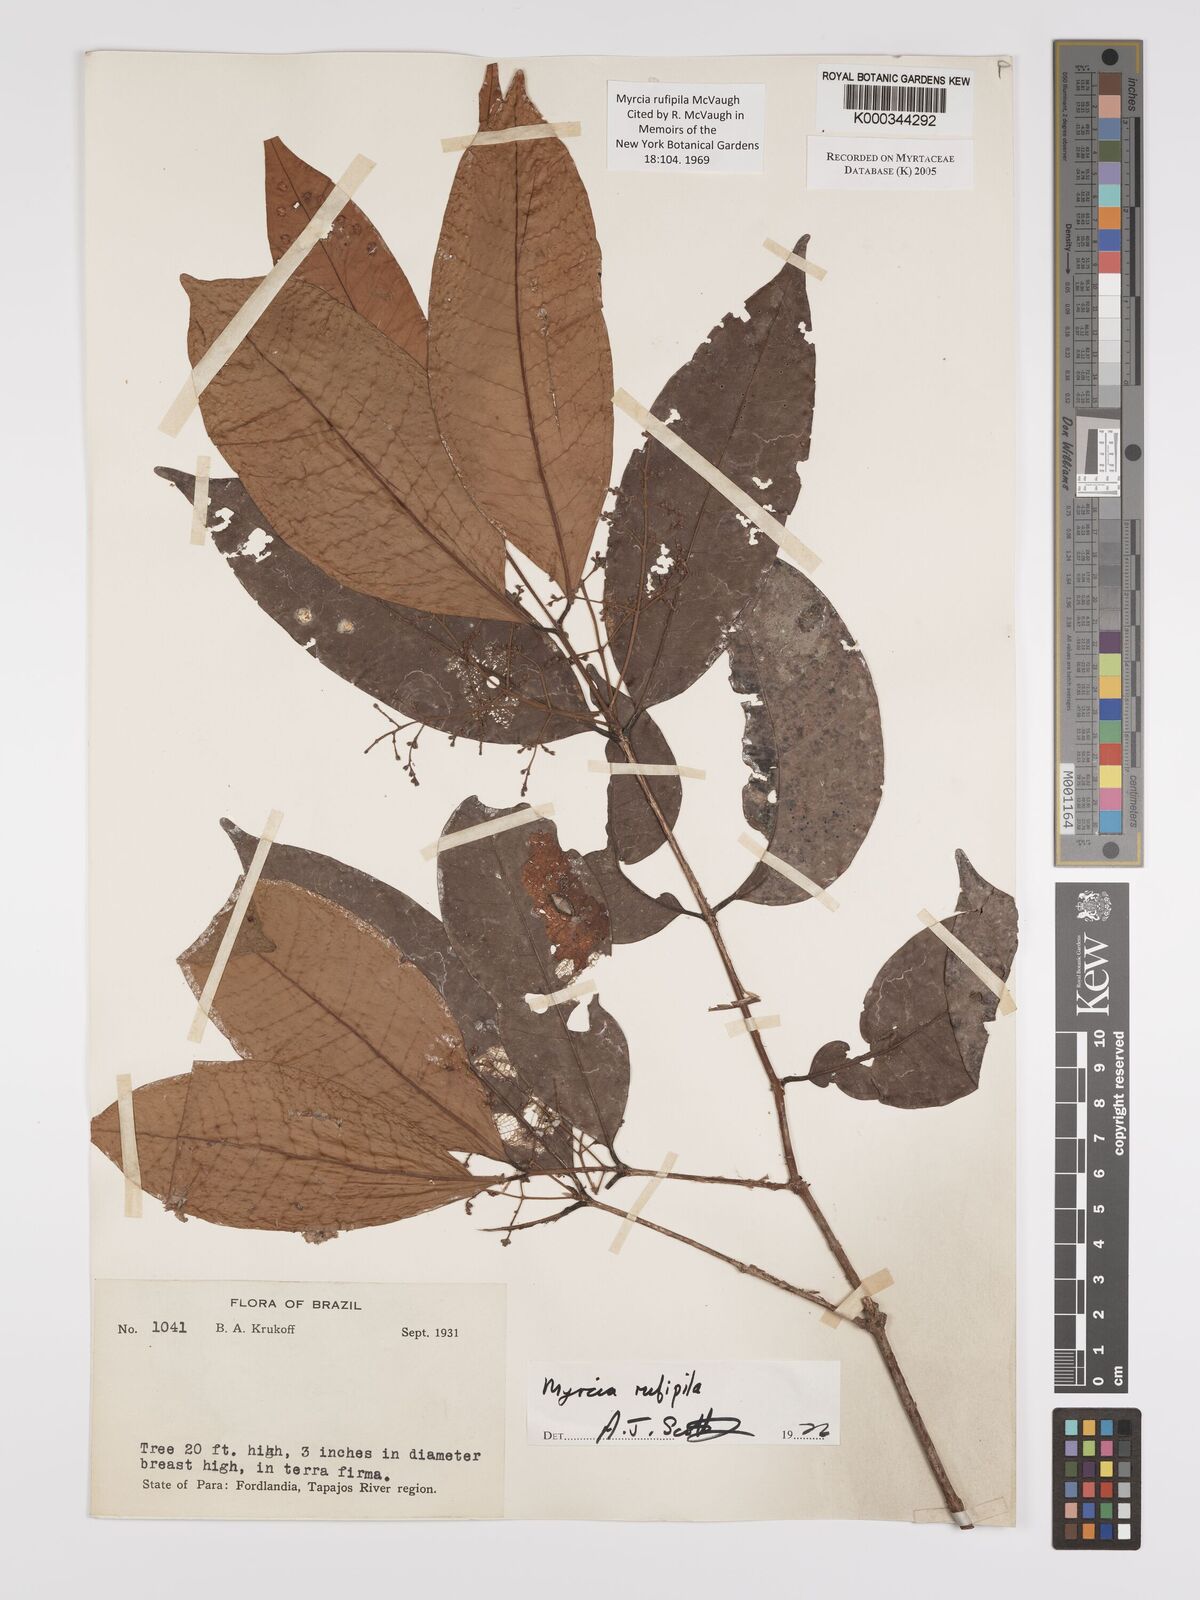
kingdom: Plantae
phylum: Tracheophyta
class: Magnoliopsida
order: Myrtales
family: Myrtaceae
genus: Myrcia
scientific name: Myrcia rufipila
